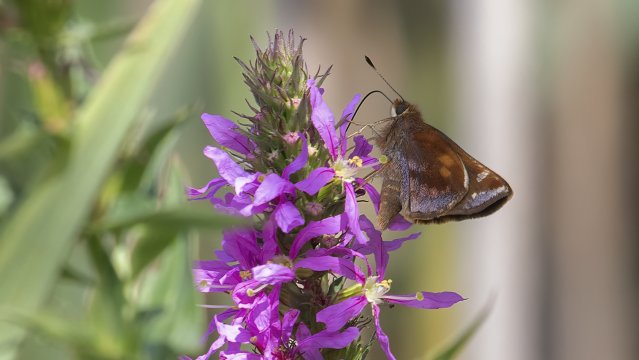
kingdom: Animalia
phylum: Arthropoda
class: Insecta
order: Lepidoptera
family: Hesperiidae
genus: Lon
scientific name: Lon zabulon
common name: Zabulon Skipper
